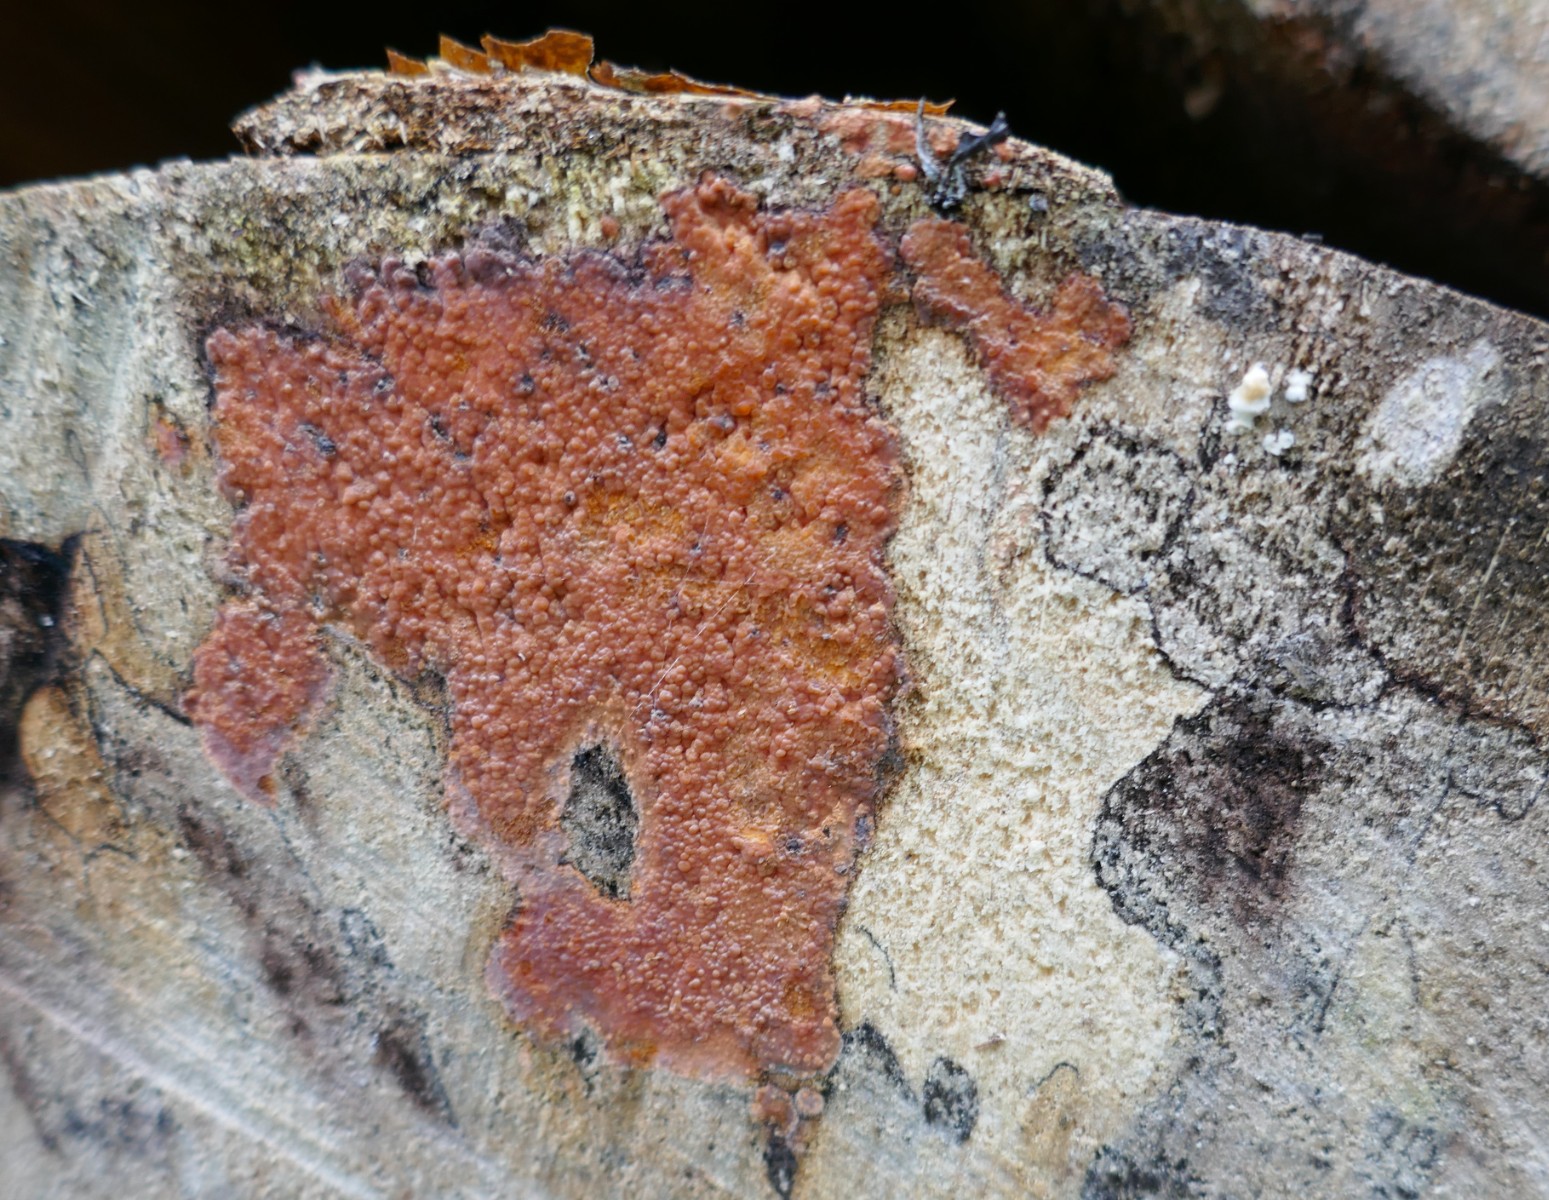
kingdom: Fungi
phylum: Basidiomycota
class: Agaricomycetes
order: Corticiales
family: Corticiaceae
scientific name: Corticiaceae
